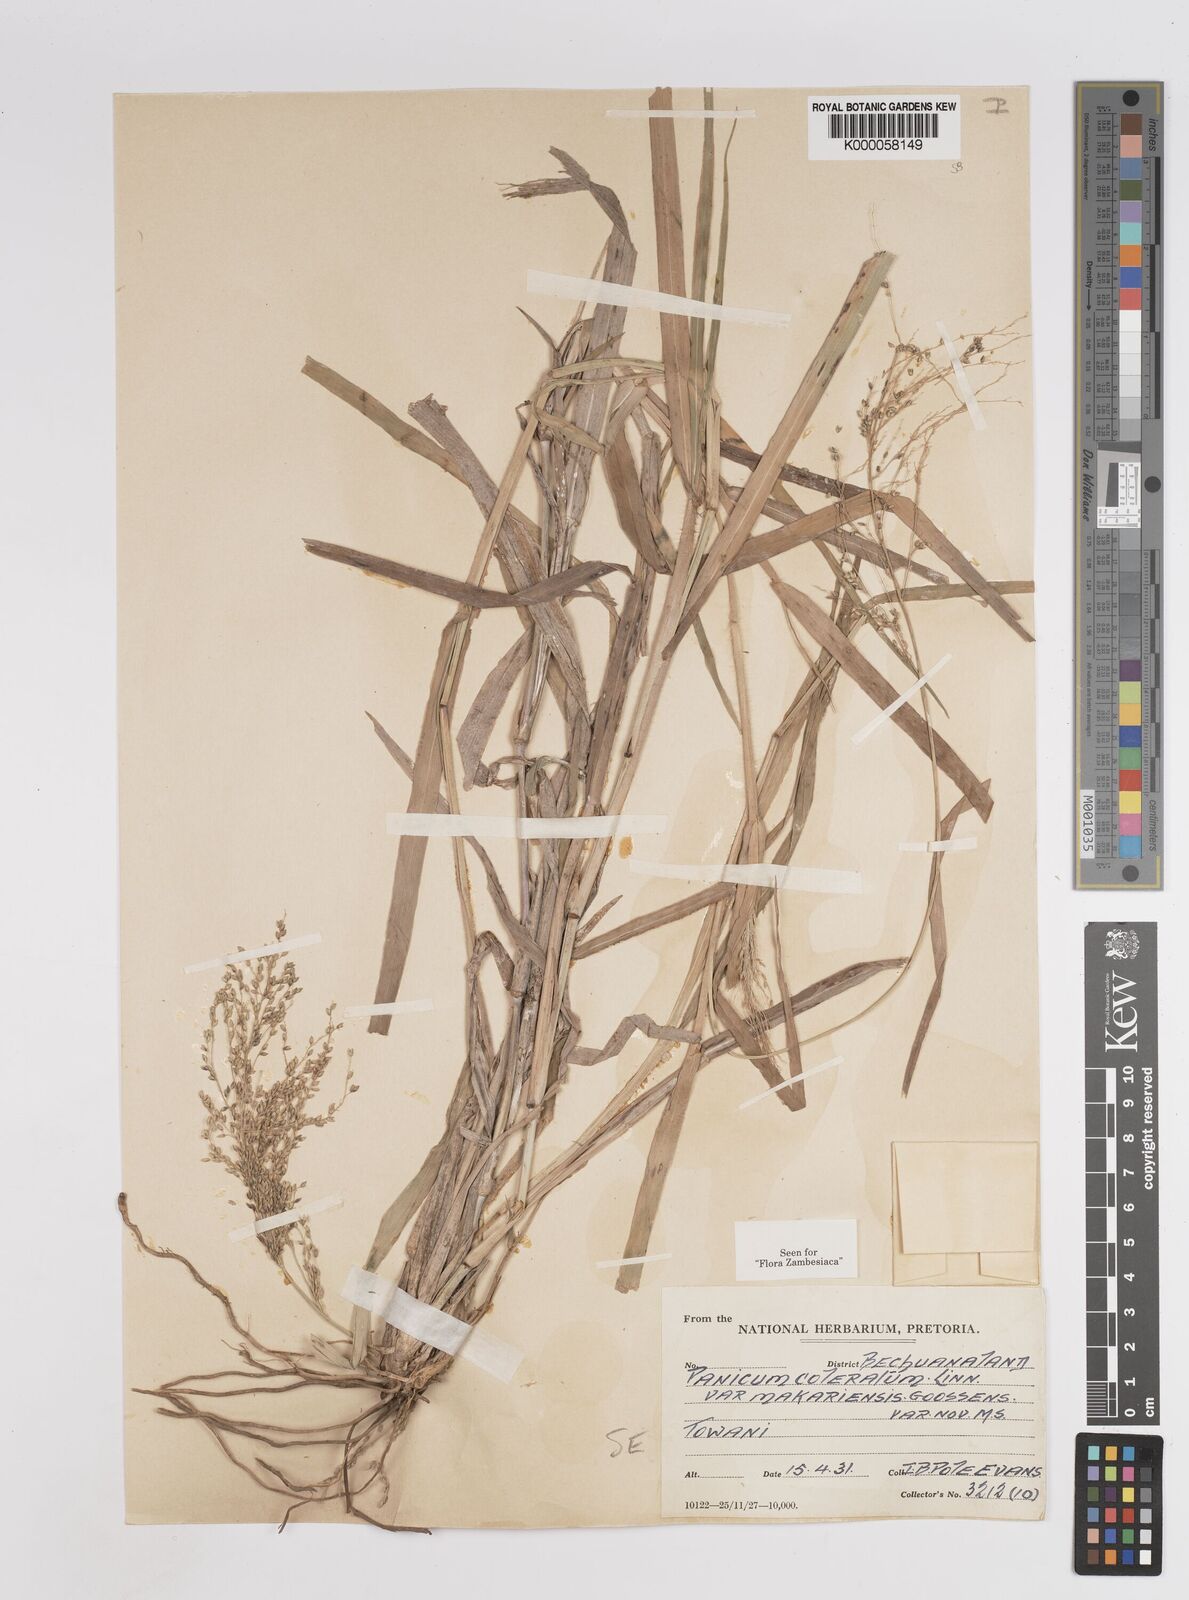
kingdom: Plantae
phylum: Tracheophyta
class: Liliopsida
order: Poales
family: Poaceae
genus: Panicum
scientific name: Panicum coloratum
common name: Kleingrass
